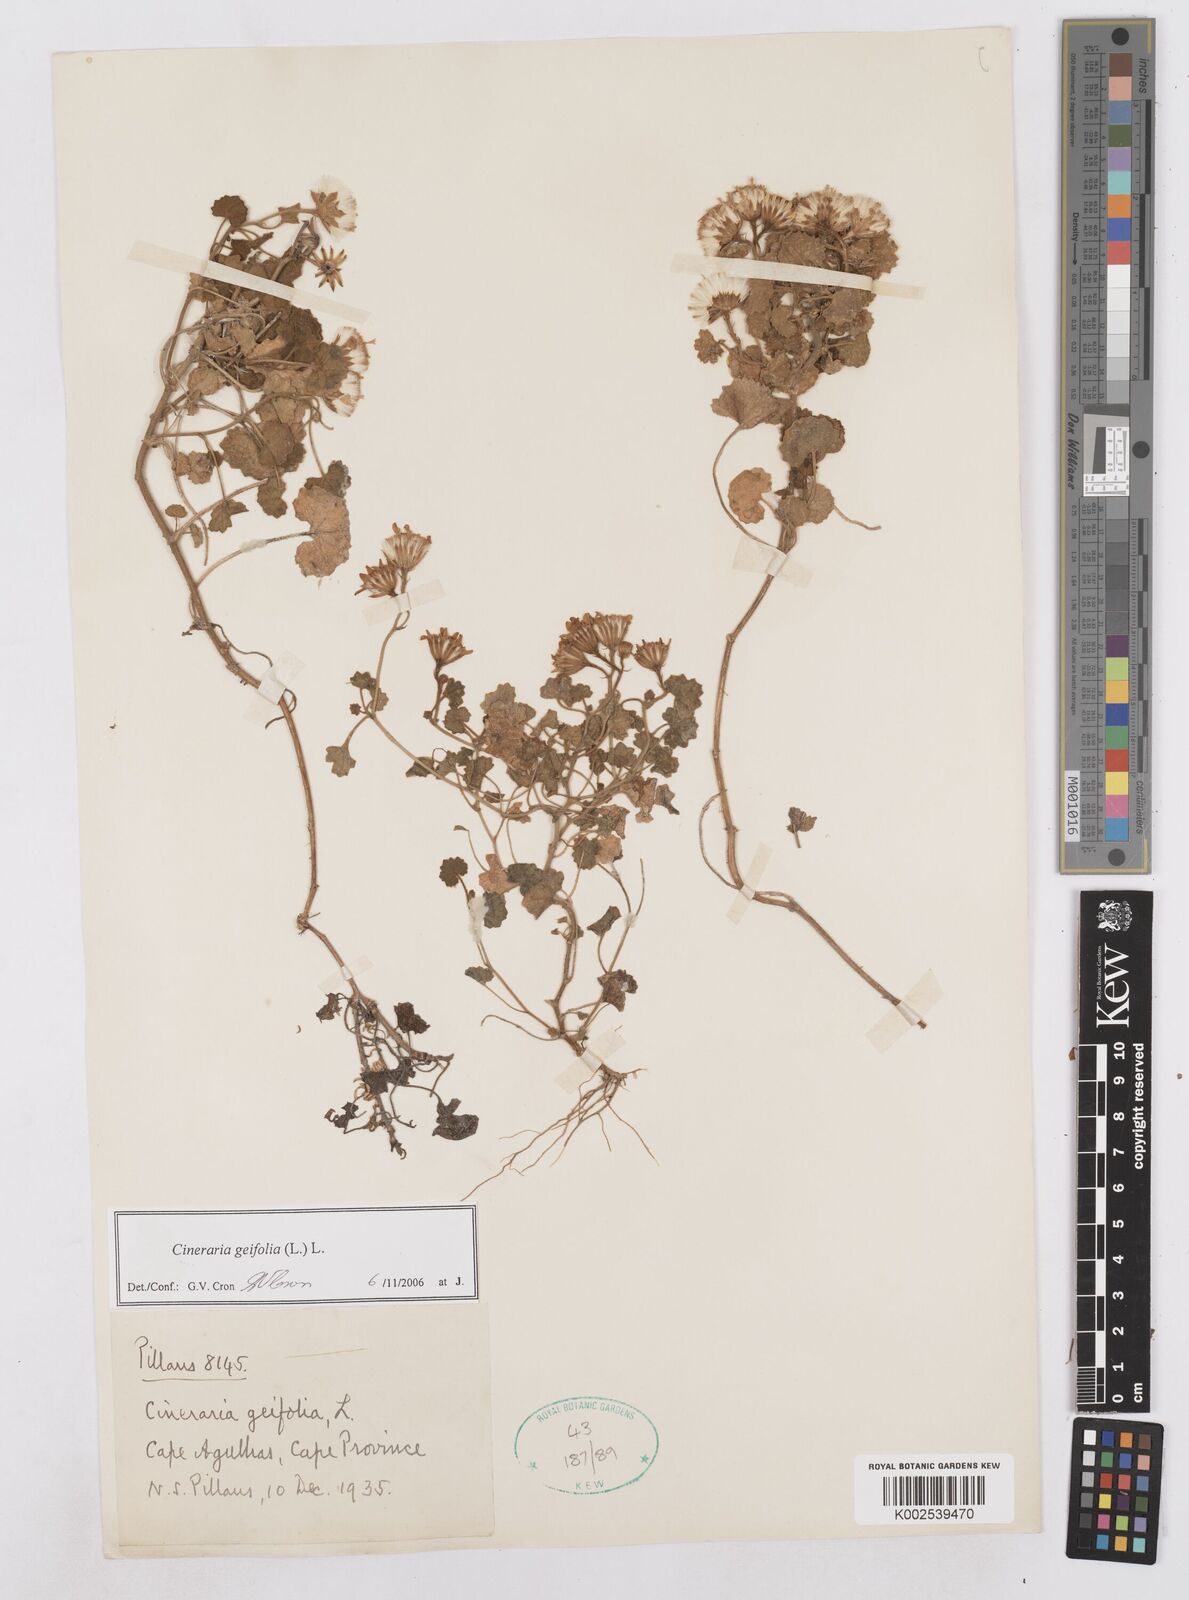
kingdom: Plantae
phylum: Tracheophyta
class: Magnoliopsida
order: Asterales
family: Asteraceae
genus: Cineraria
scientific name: Cineraria geifolia
